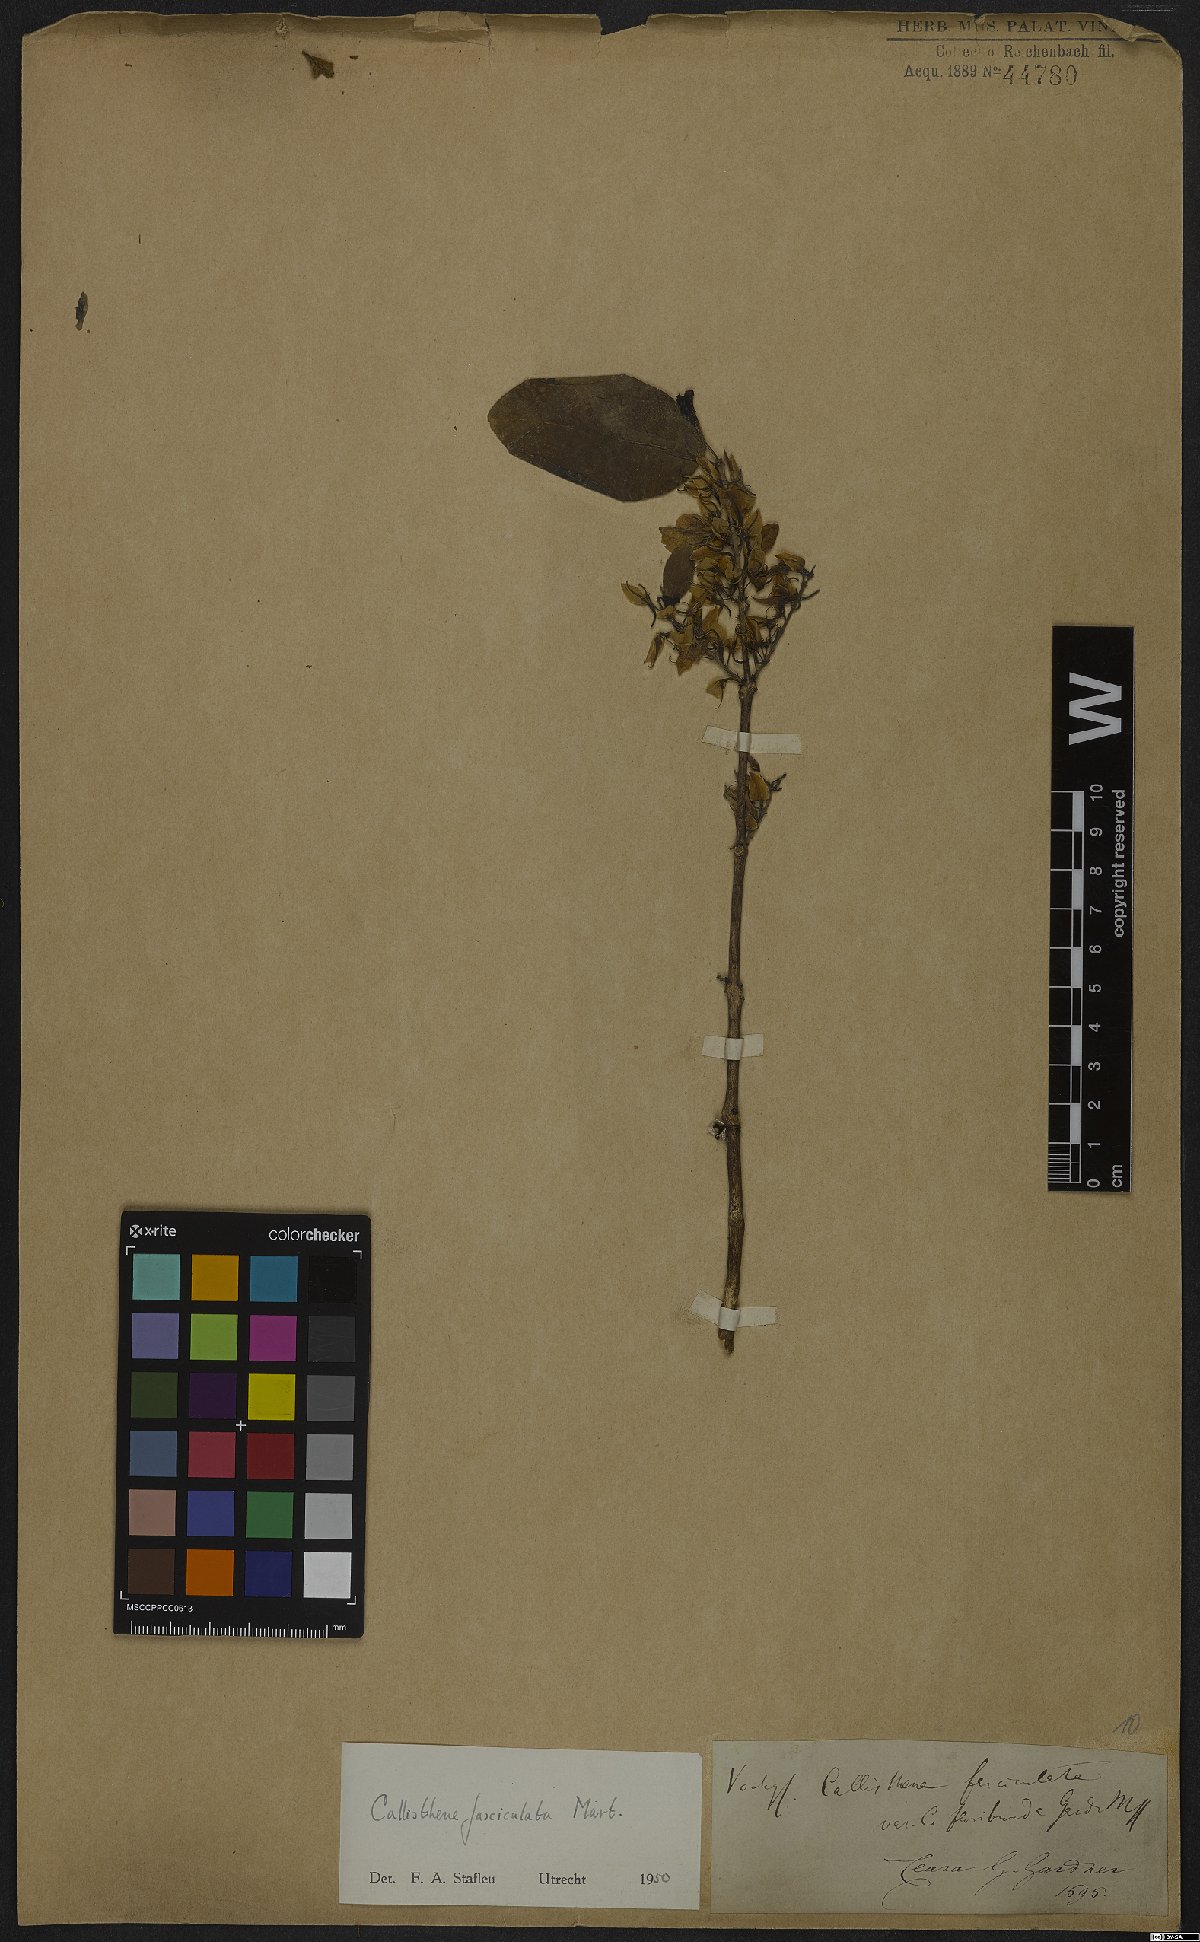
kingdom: Plantae
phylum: Tracheophyta
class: Magnoliopsida
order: Myrtales
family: Vochysiaceae
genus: Callisthene
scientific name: Callisthene fasciculata
